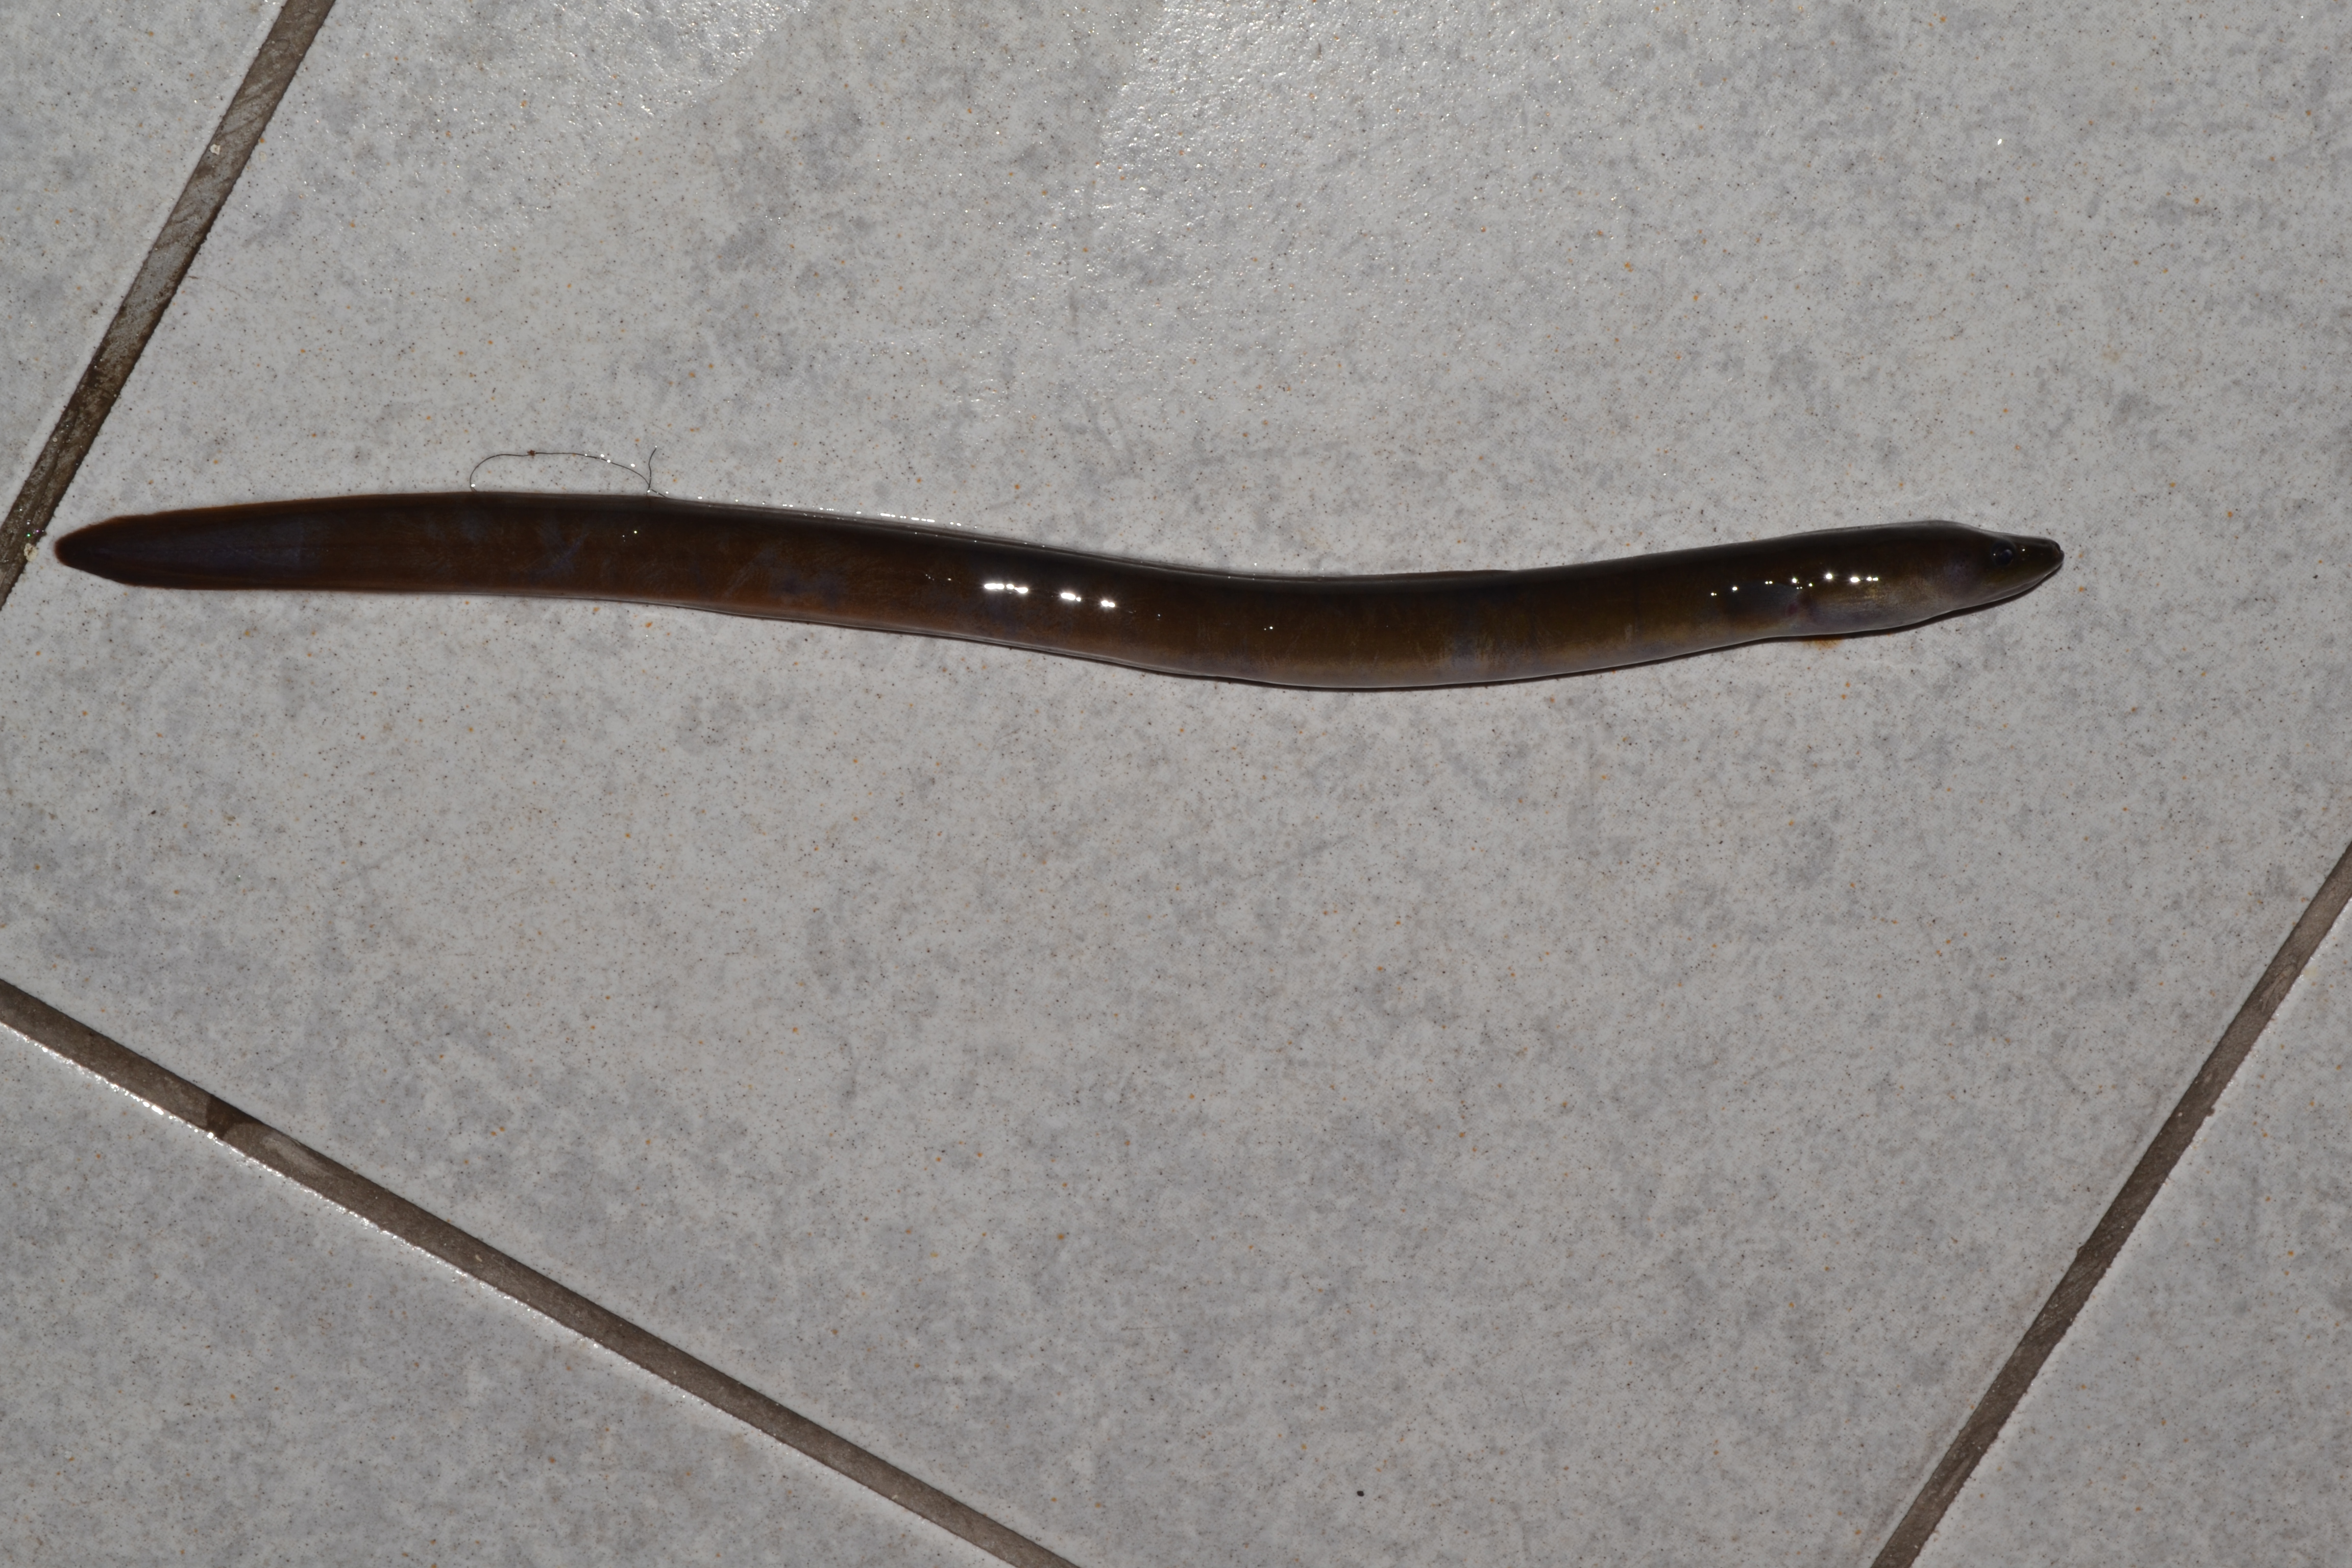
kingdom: Animalia
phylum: Chordata
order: Anguilliformes
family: Anguillidae
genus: Anguilla
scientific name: Anguilla mossambica
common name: African longfin eel
